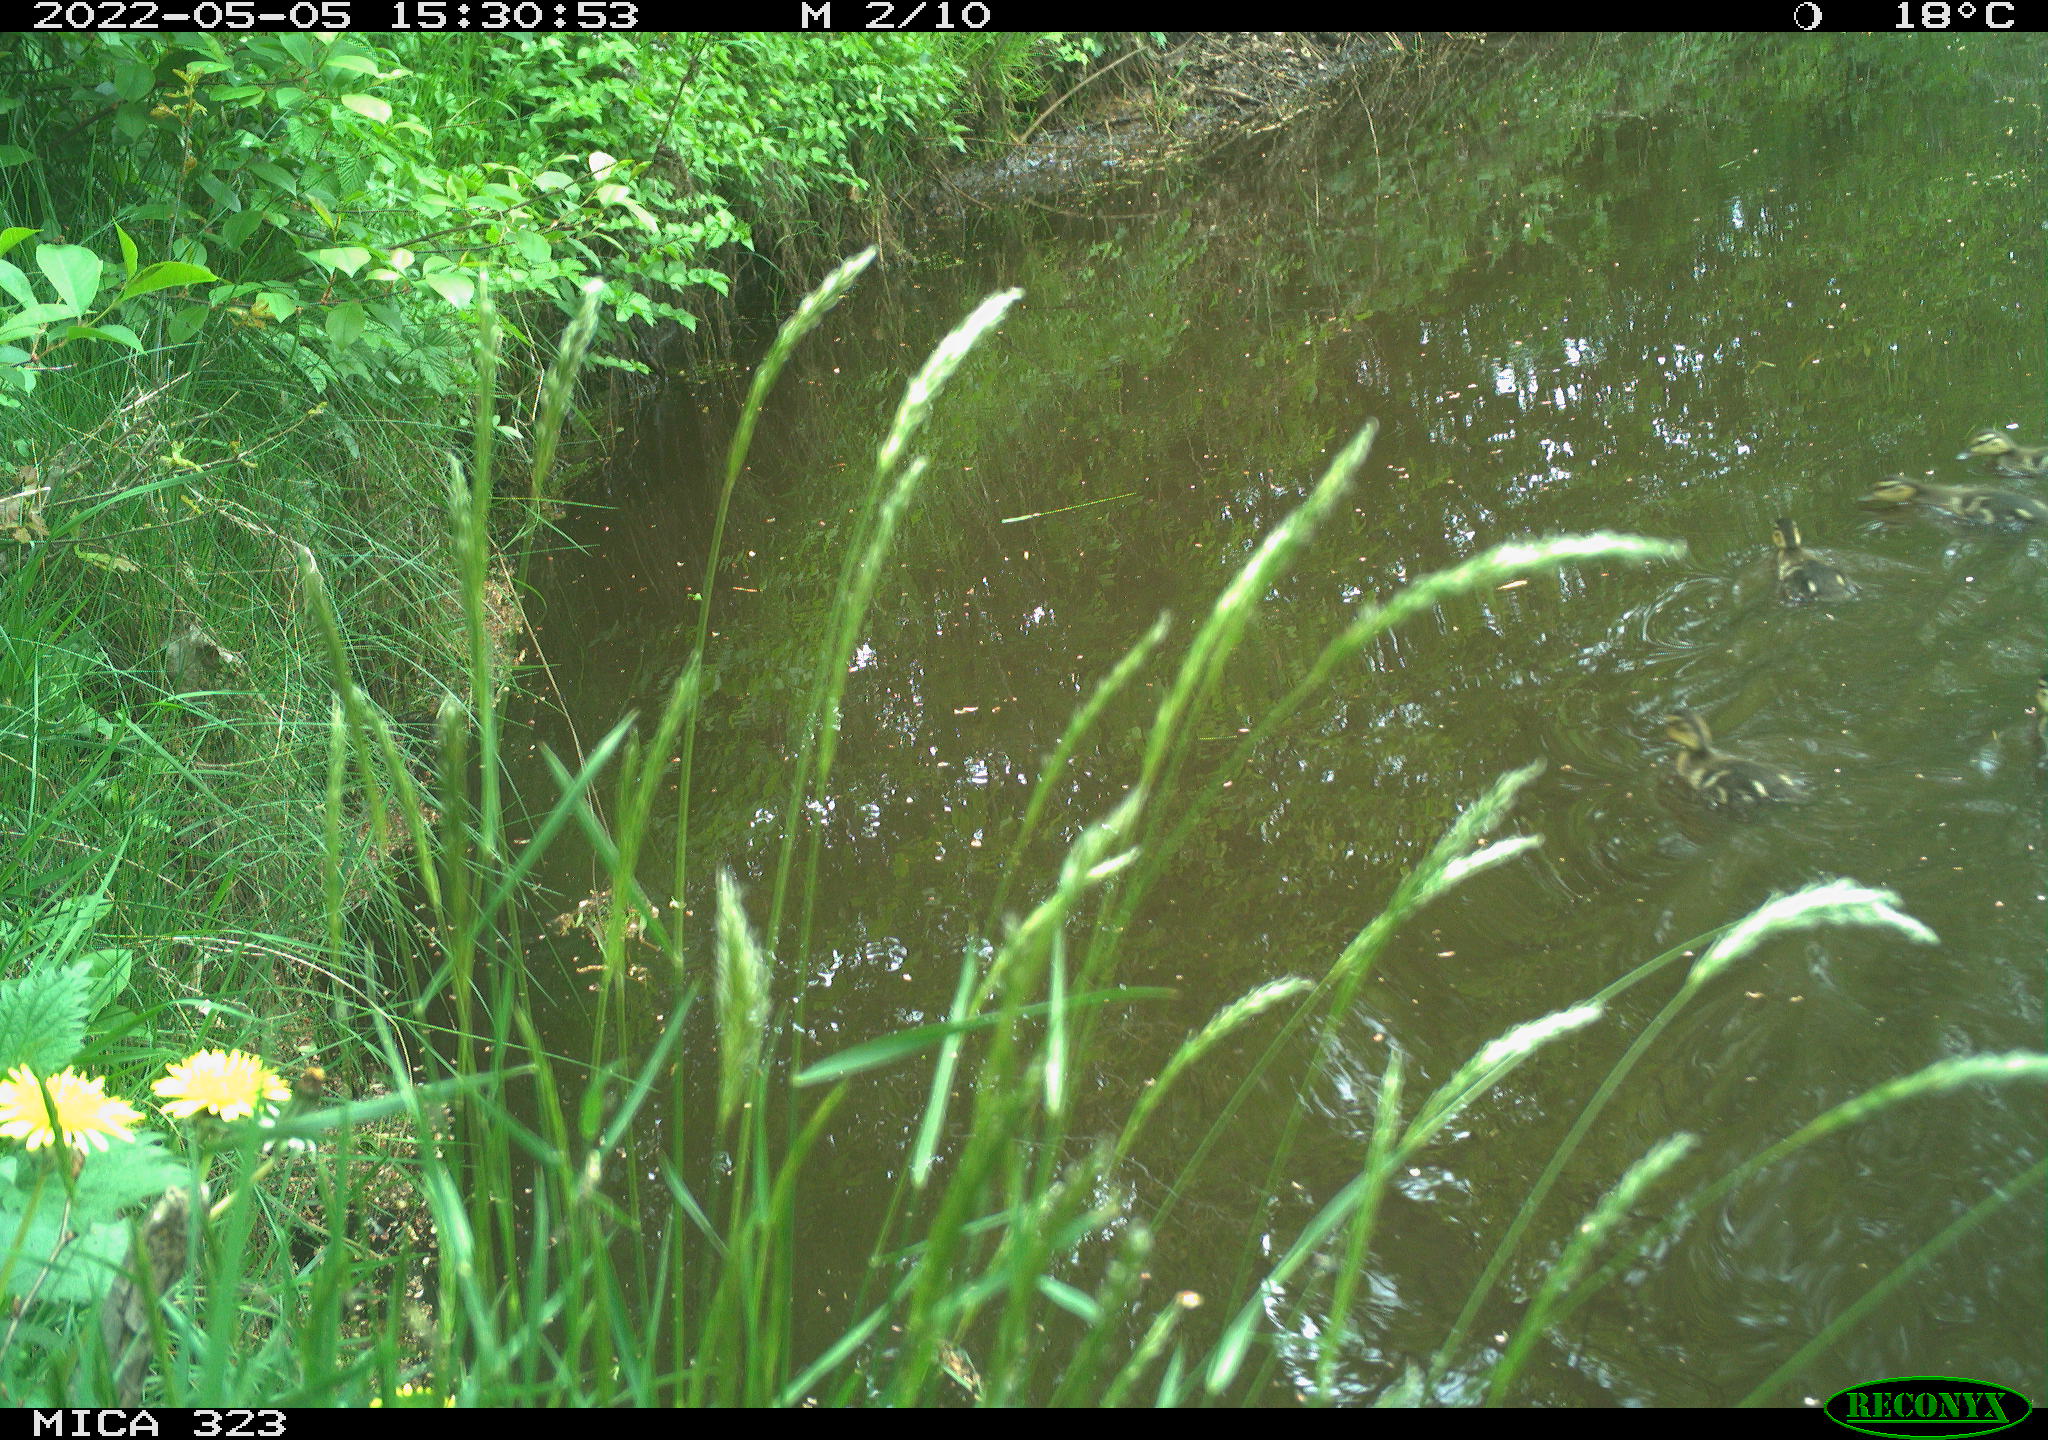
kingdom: Animalia
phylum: Chordata
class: Aves
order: Anseriformes
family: Anatidae
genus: Anas
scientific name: Anas
